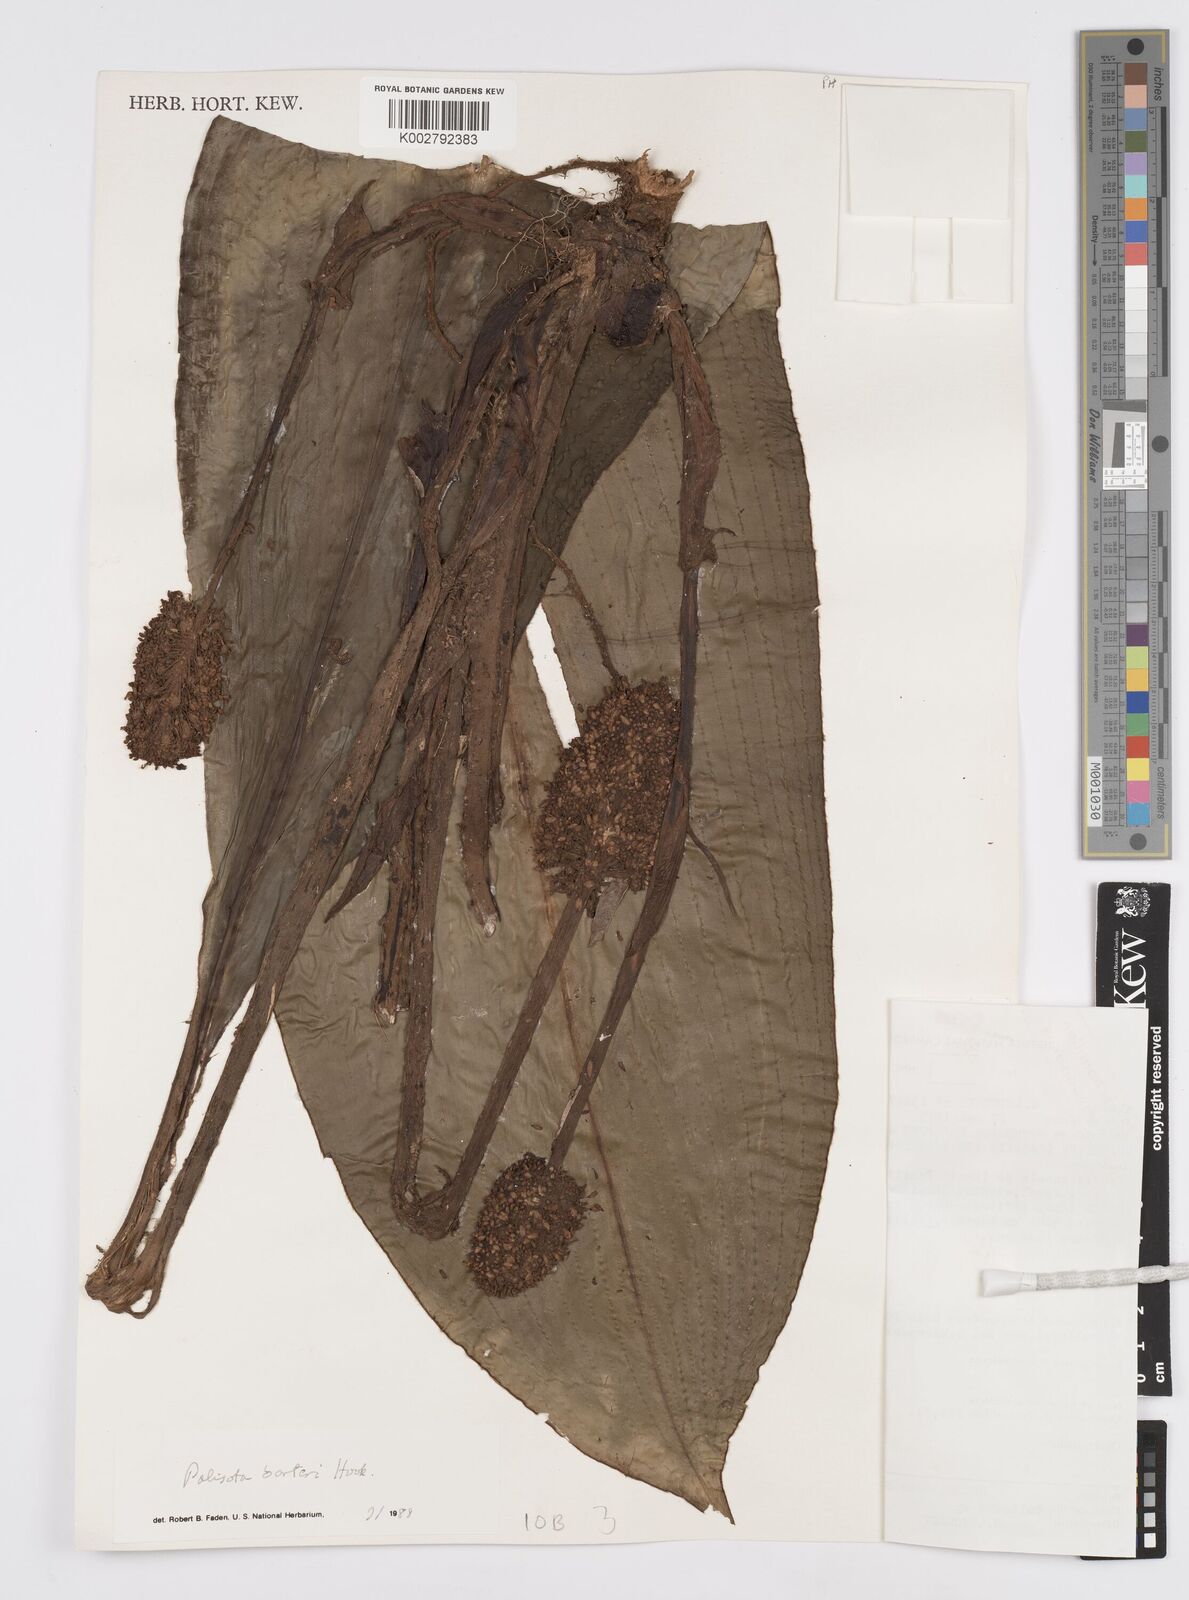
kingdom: Plantae
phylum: Tracheophyta
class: Liliopsida
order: Commelinales
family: Commelinaceae
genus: Palisota
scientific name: Palisota barteri
